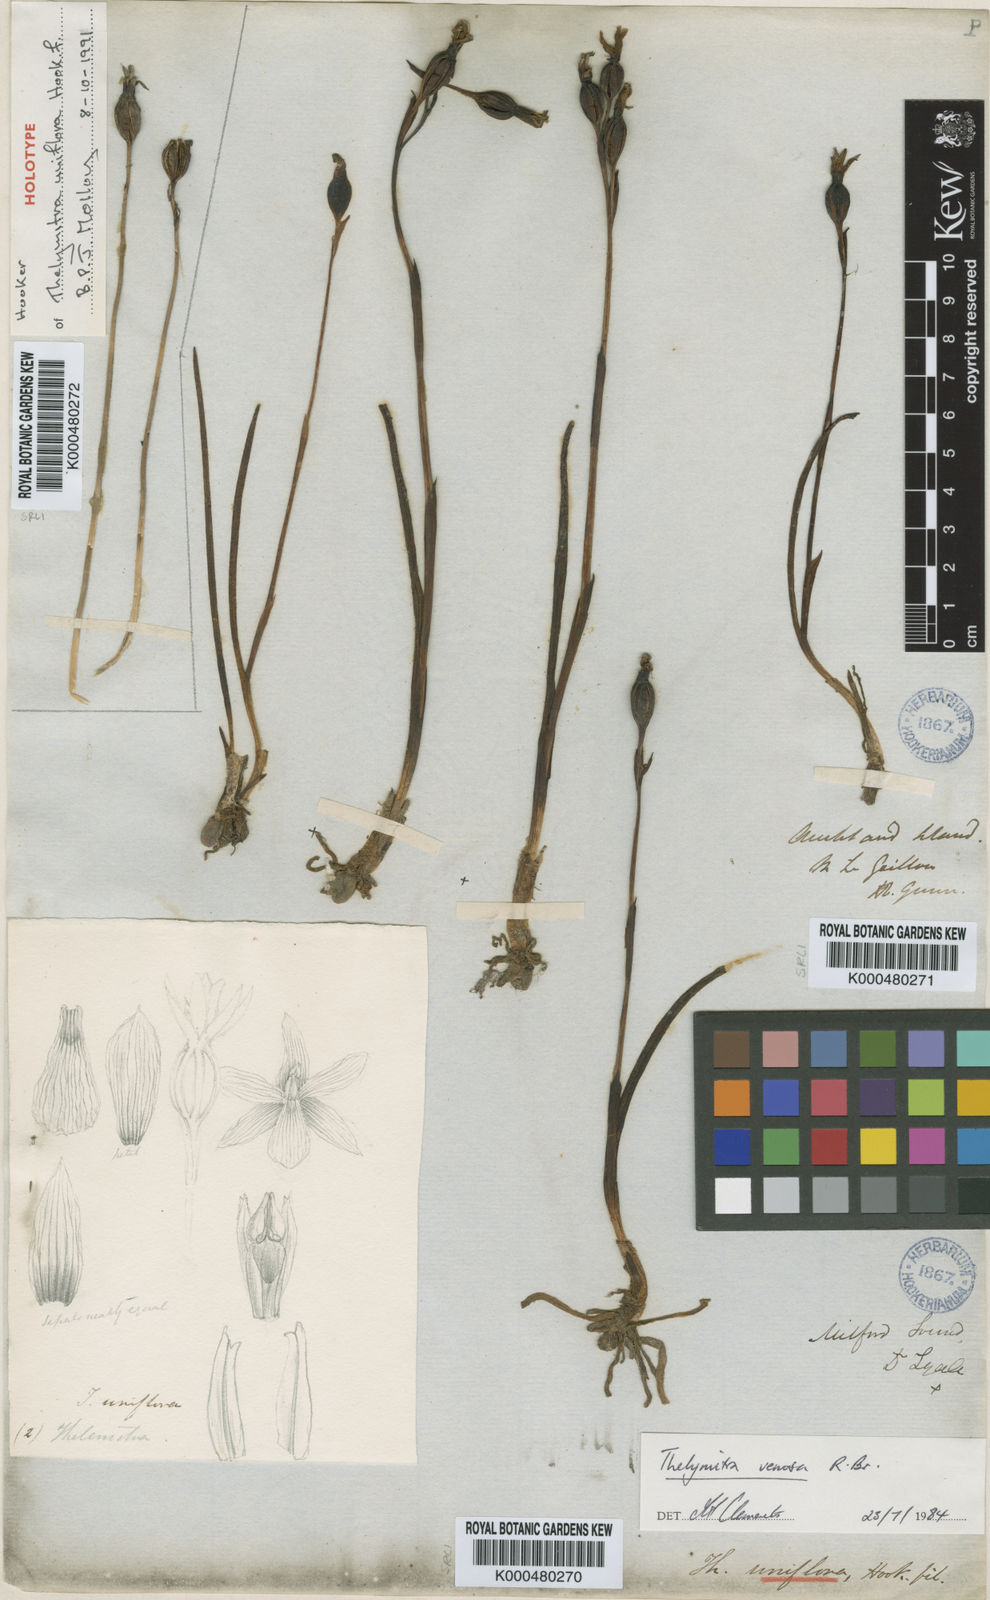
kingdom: Plantae
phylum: Tracheophyta
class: Liliopsida
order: Asparagales
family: Orchidaceae
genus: Thelymitra
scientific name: Thelymitra cyanea
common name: Blue sun-orchid
